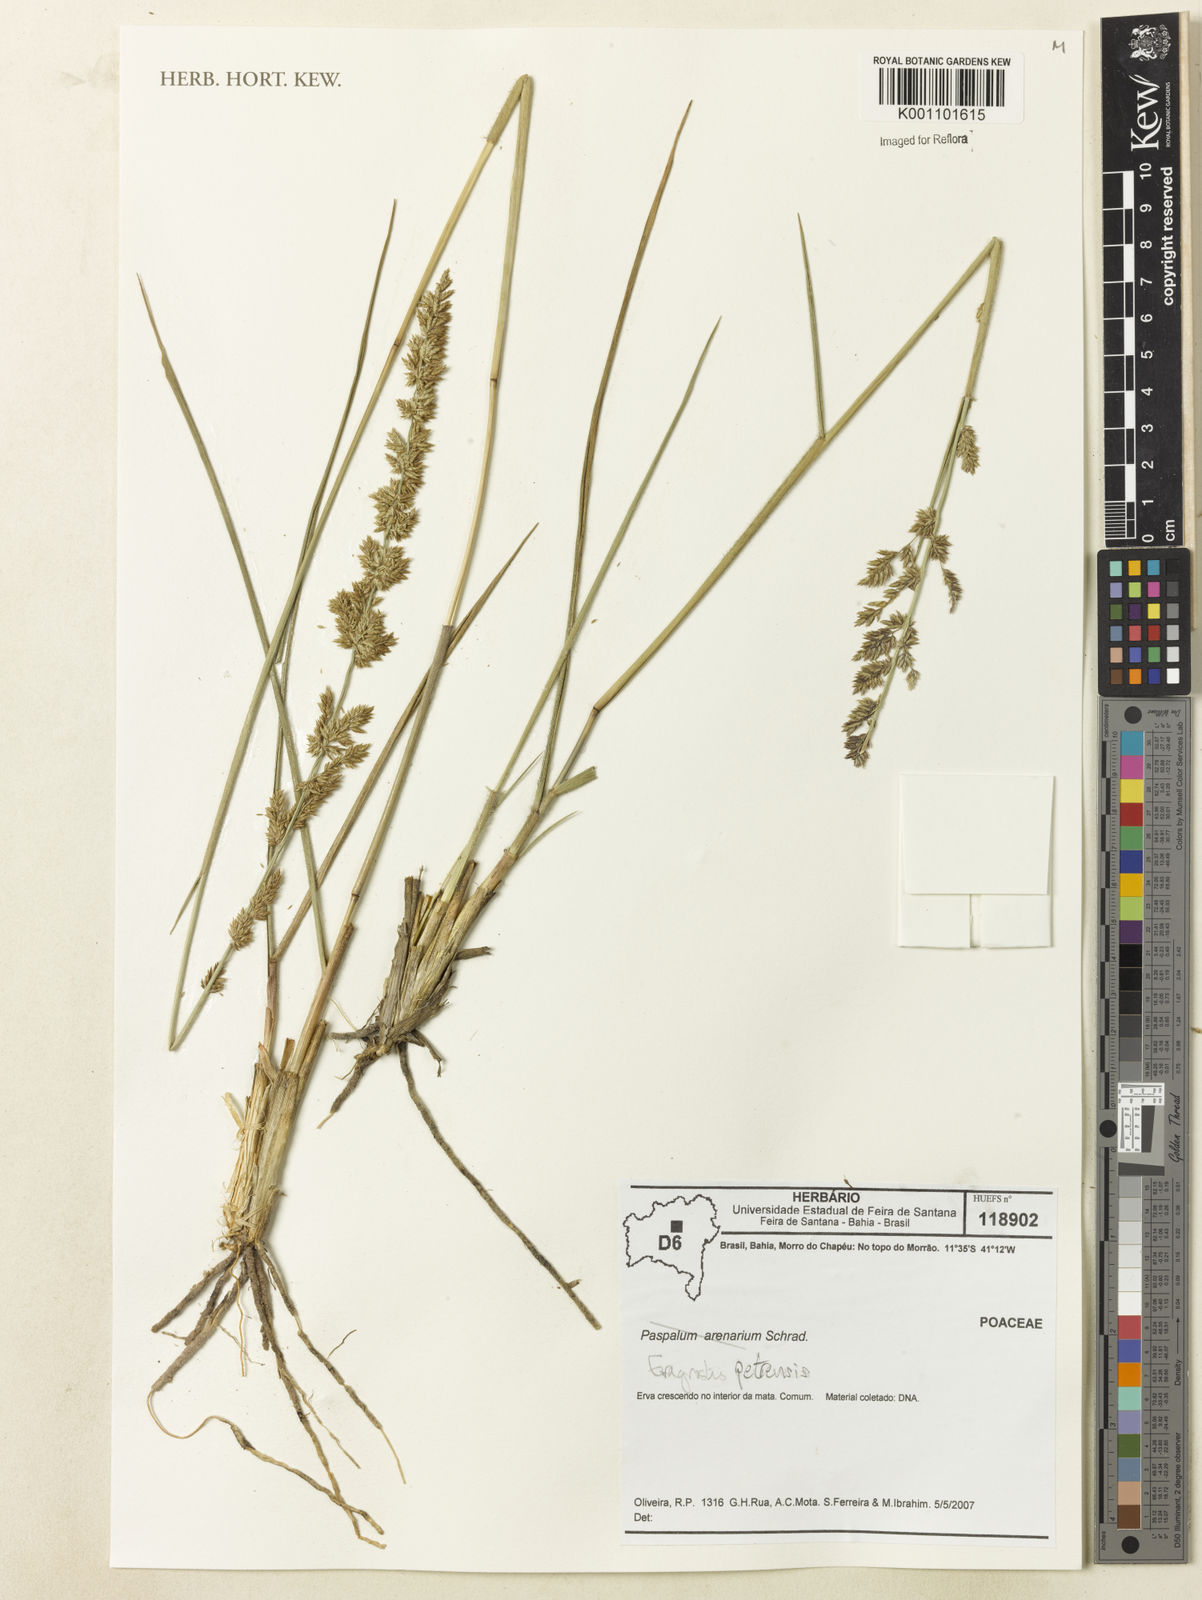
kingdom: Plantae
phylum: Tracheophyta
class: Liliopsida
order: Poales
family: Poaceae
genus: Eragrostis
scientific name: Eragrostis petrensis
